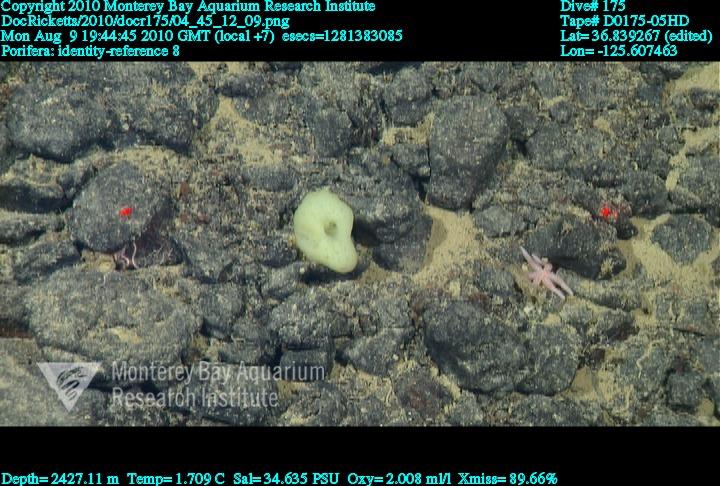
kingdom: Animalia
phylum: Porifera
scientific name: Porifera
